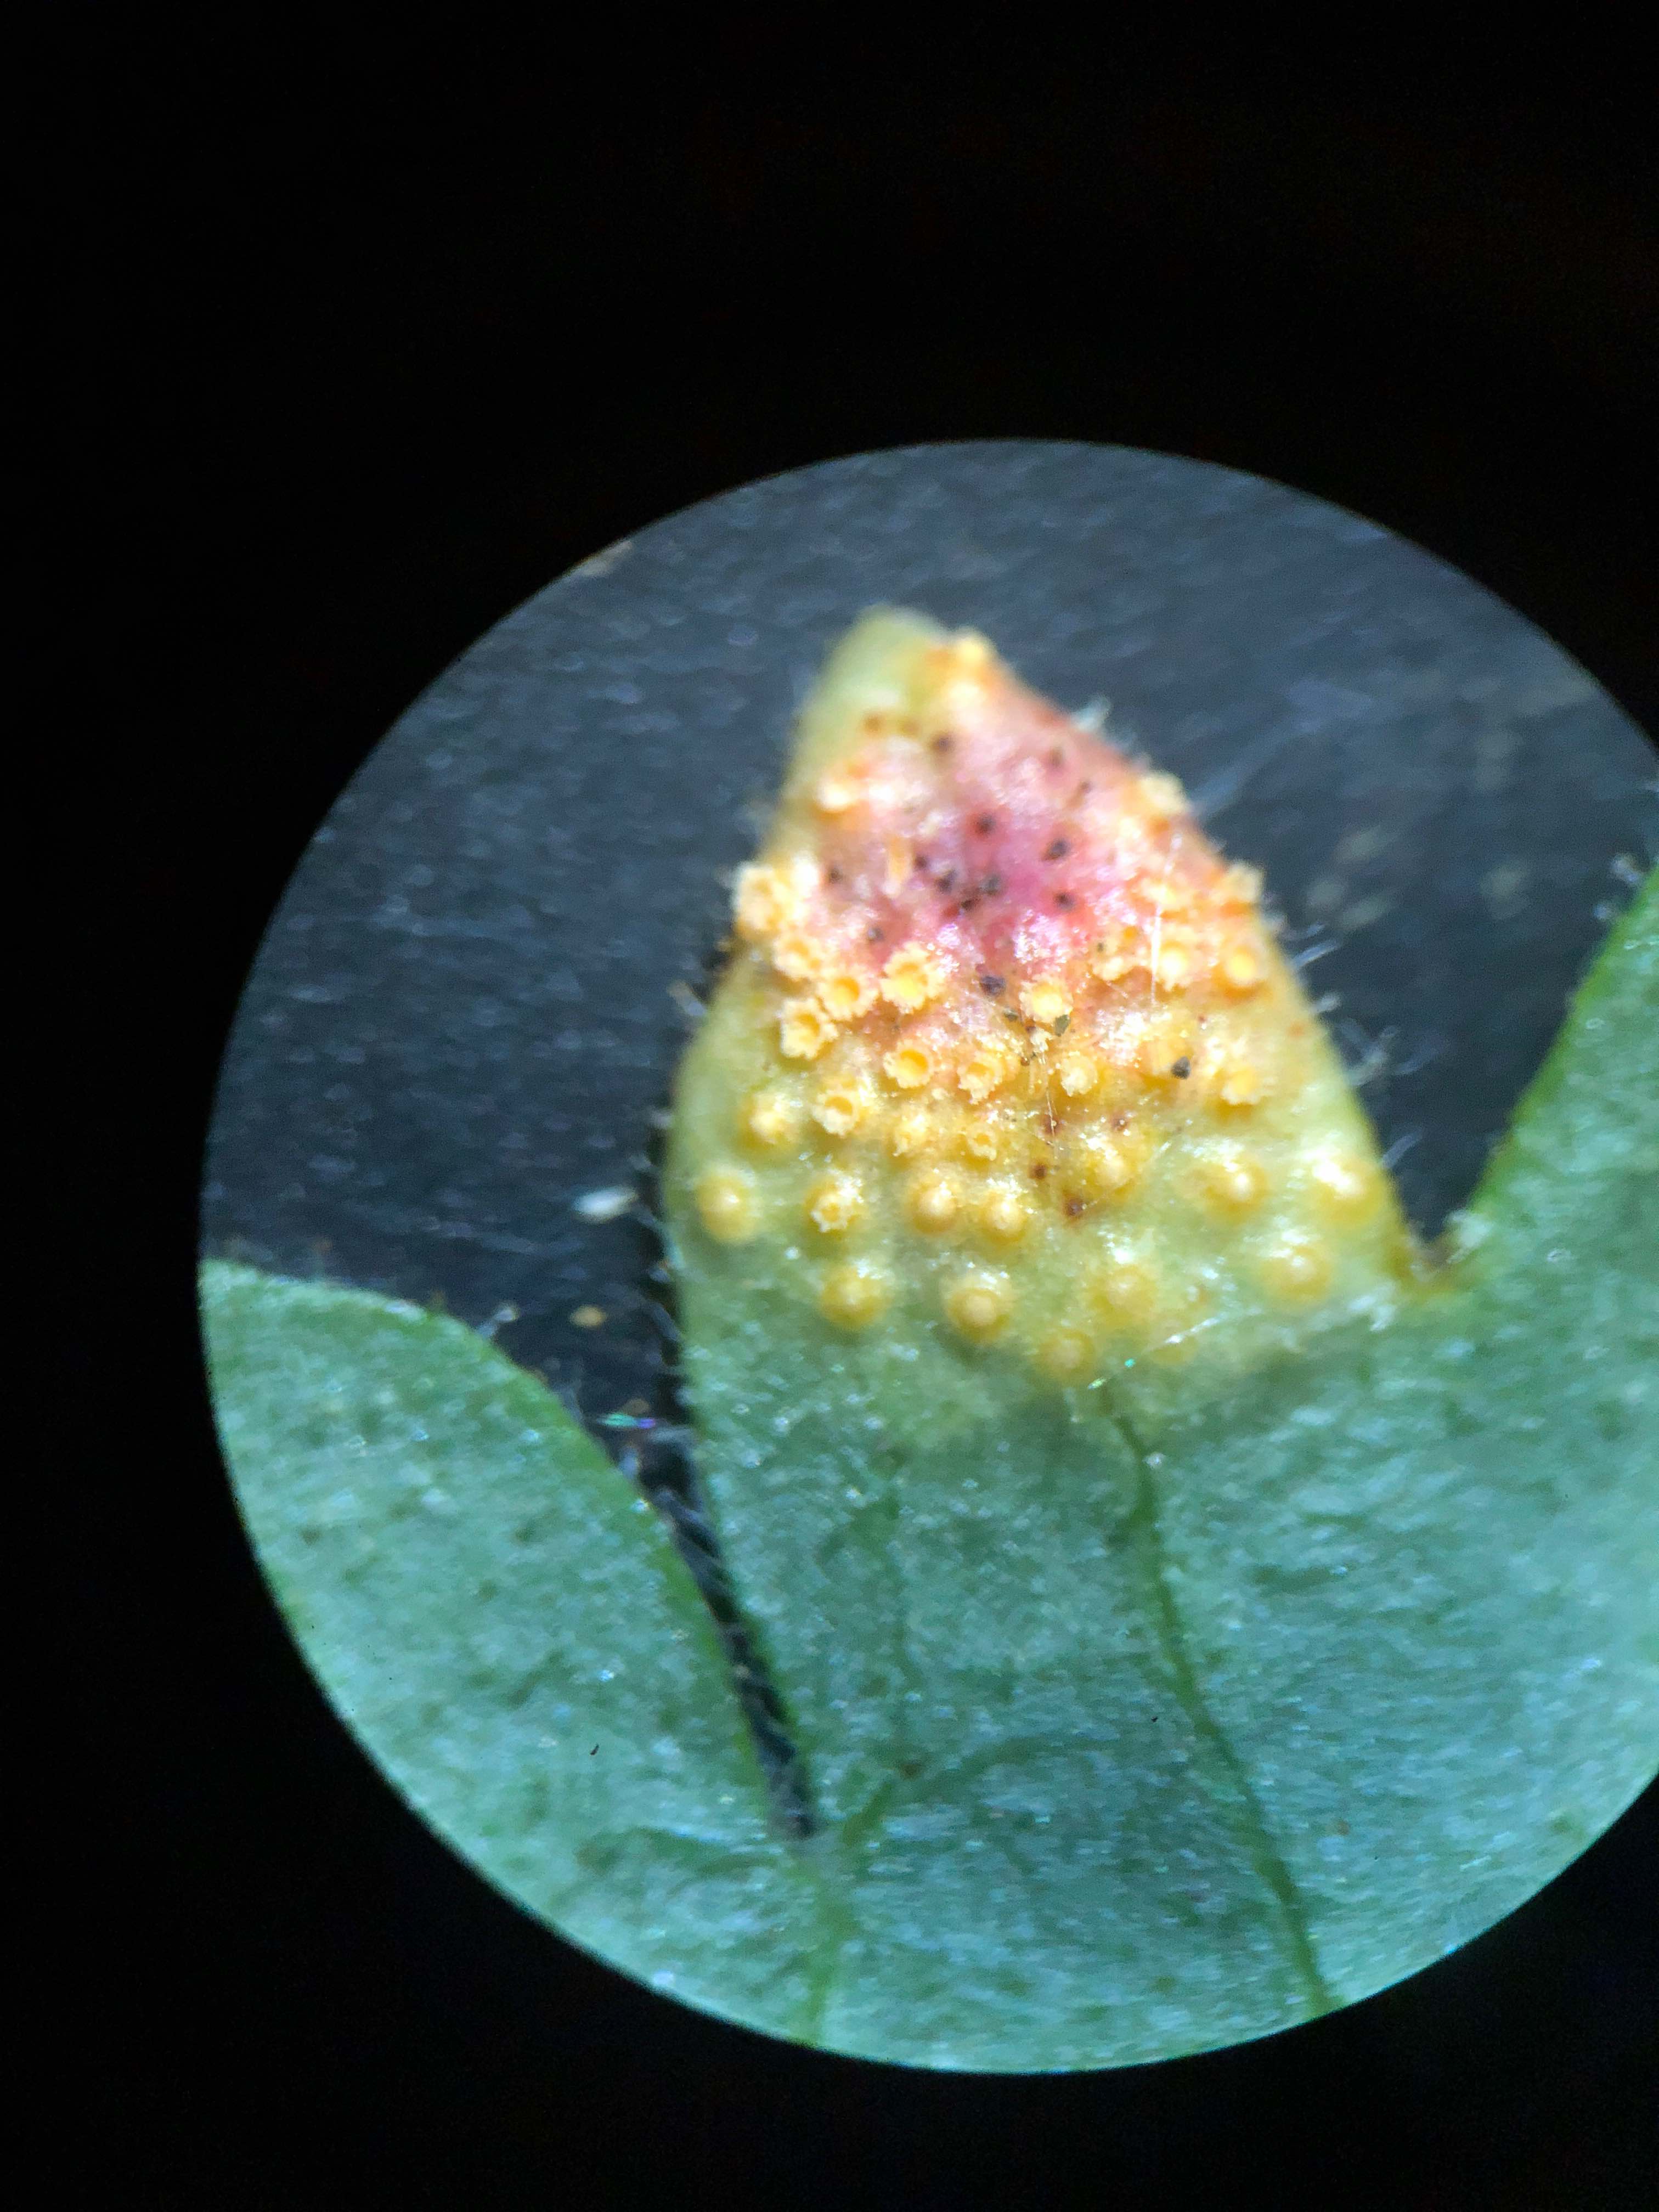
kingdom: Fungi
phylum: Basidiomycota
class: Pucciniomycetes
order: Pucciniales
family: Pucciniaceae
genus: Puccinia
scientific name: Puccinia caricina
